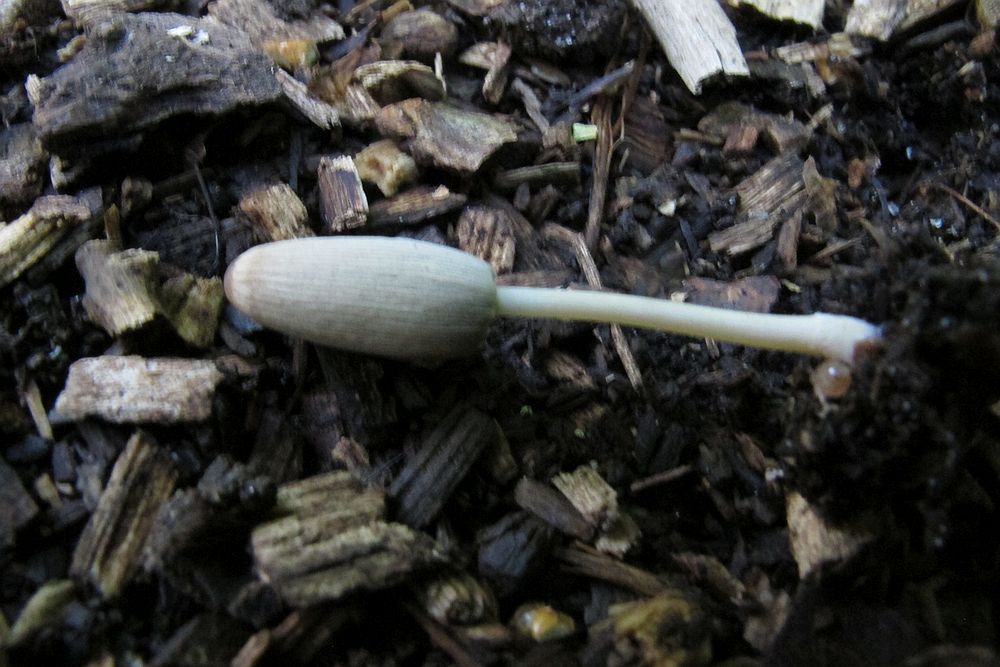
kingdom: Fungi
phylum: Basidiomycota
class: Agaricomycetes
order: Agaricales
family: Psathyrellaceae
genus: Parasola
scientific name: Parasola kuehneri
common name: skygge-hjulhat
